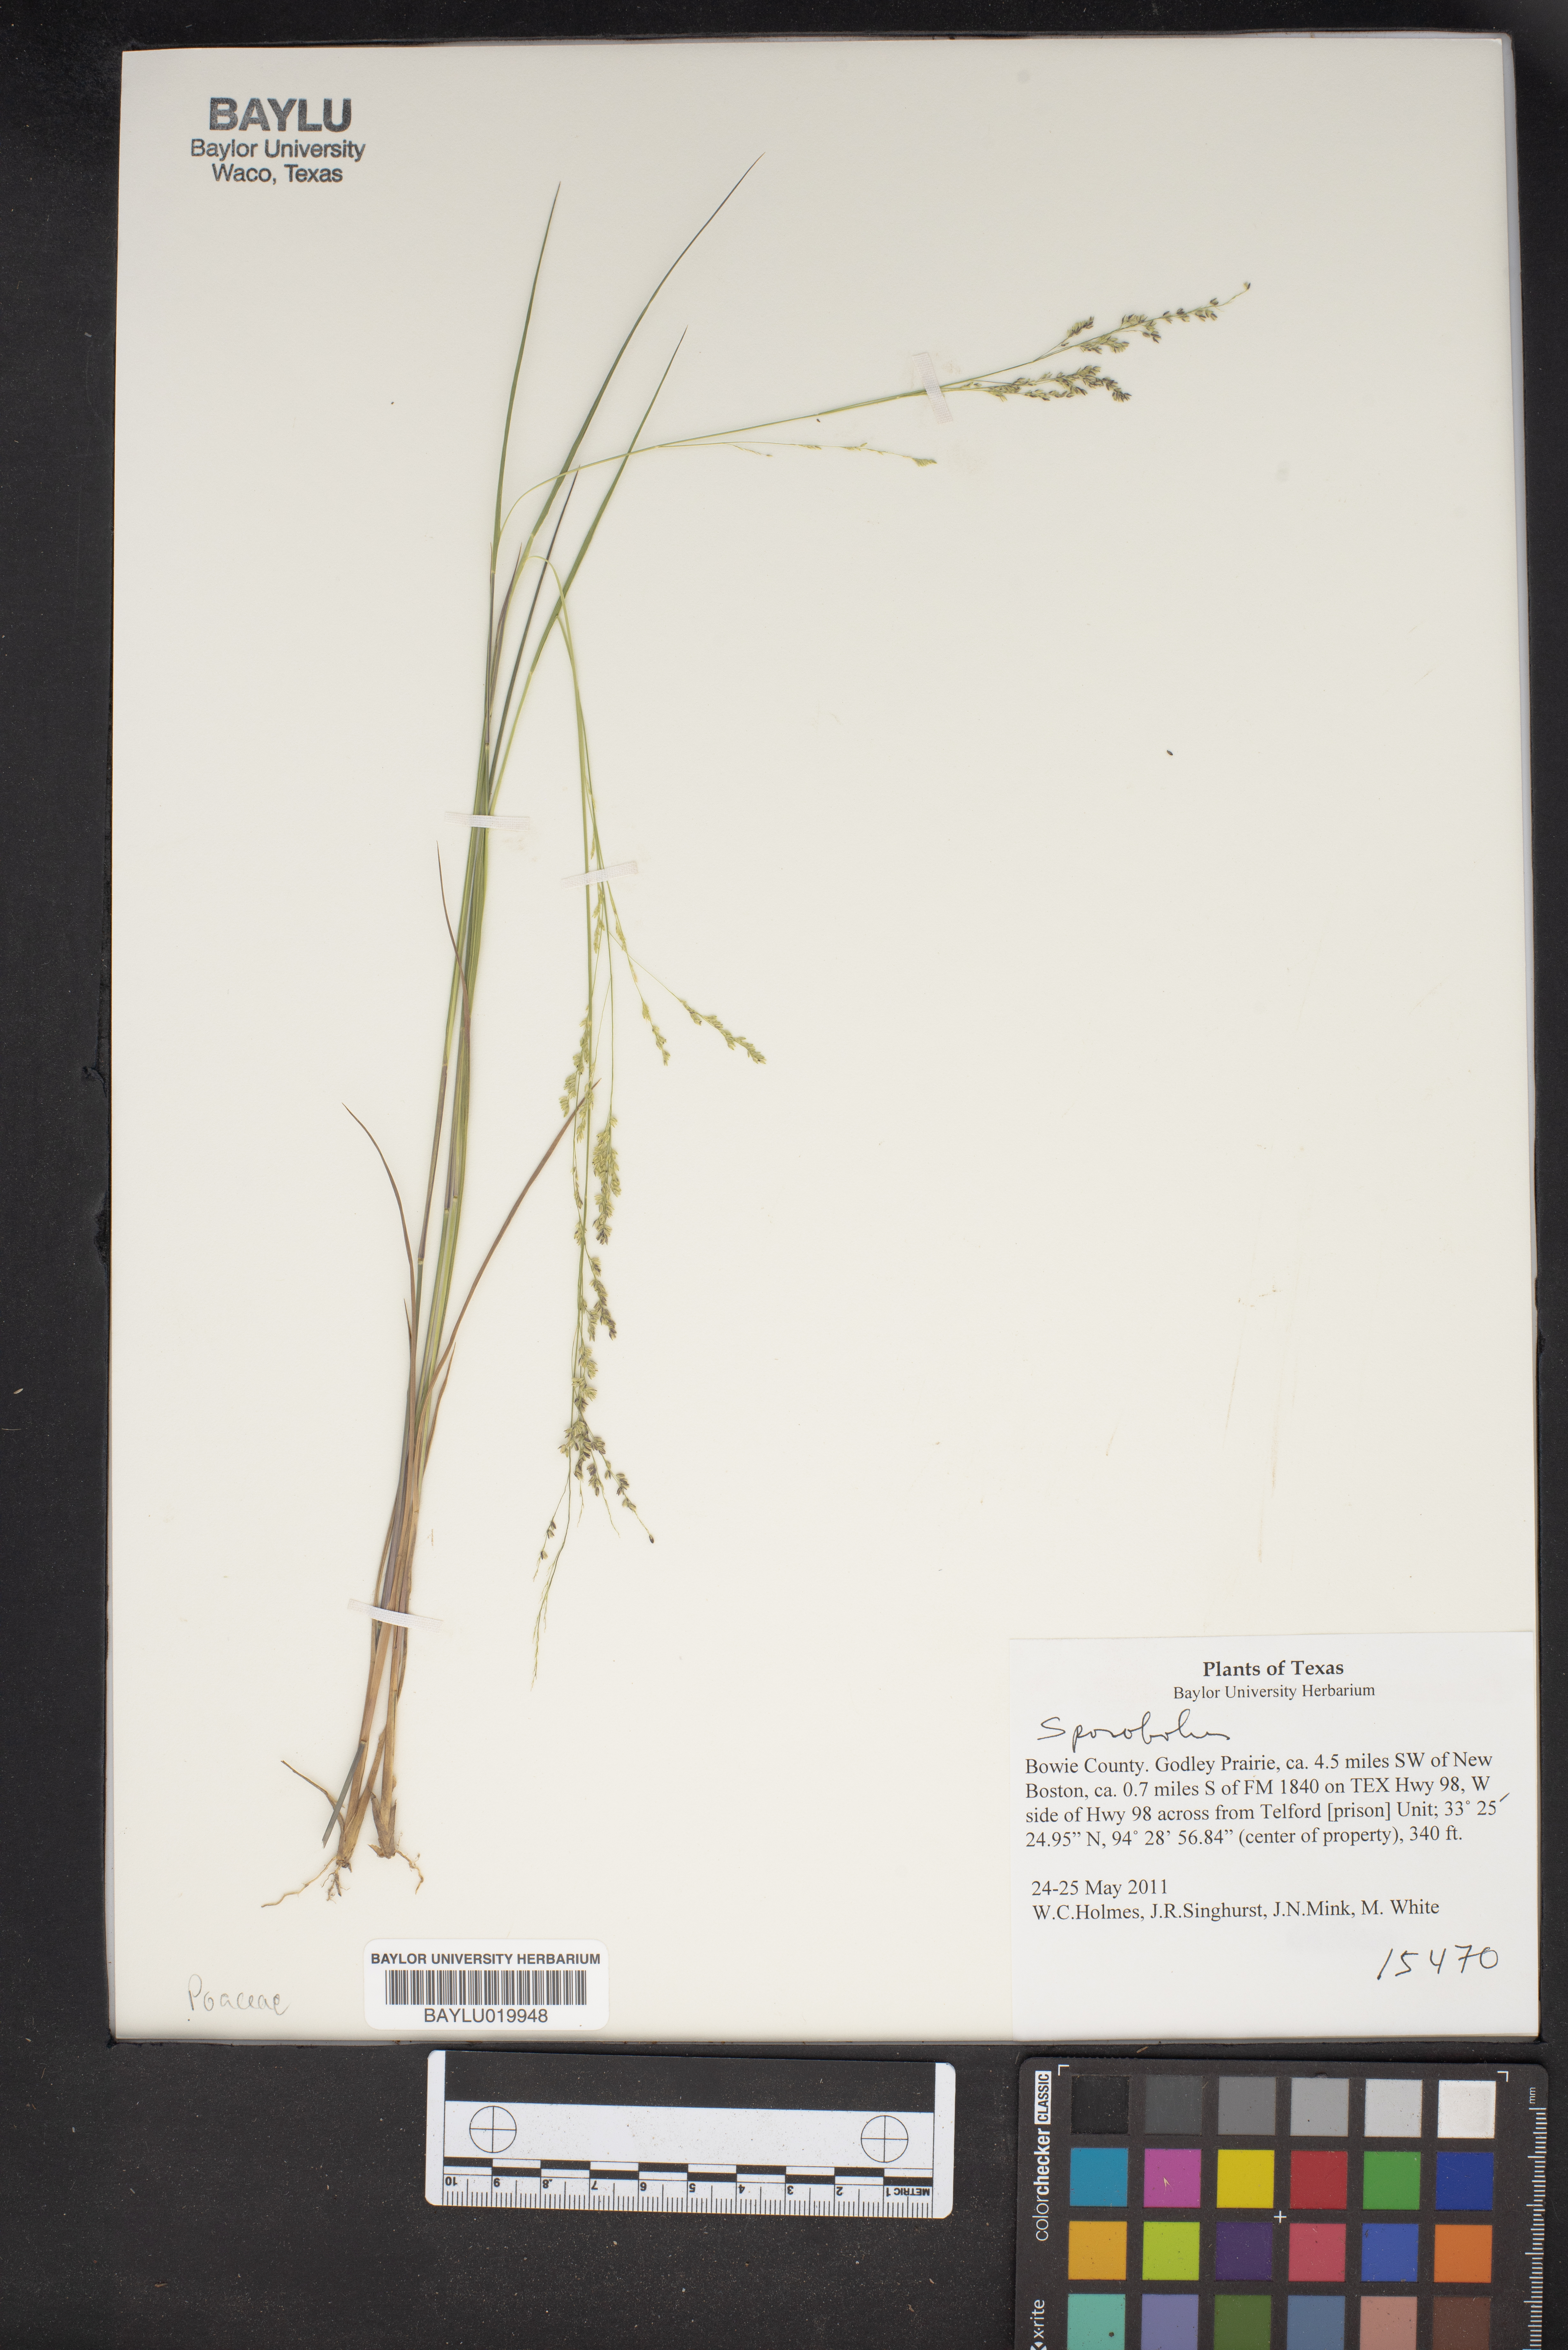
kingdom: Plantae
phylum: Tracheophyta
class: Liliopsida
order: Poales
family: Poaceae
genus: Sporobolus
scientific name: Sporobolus
